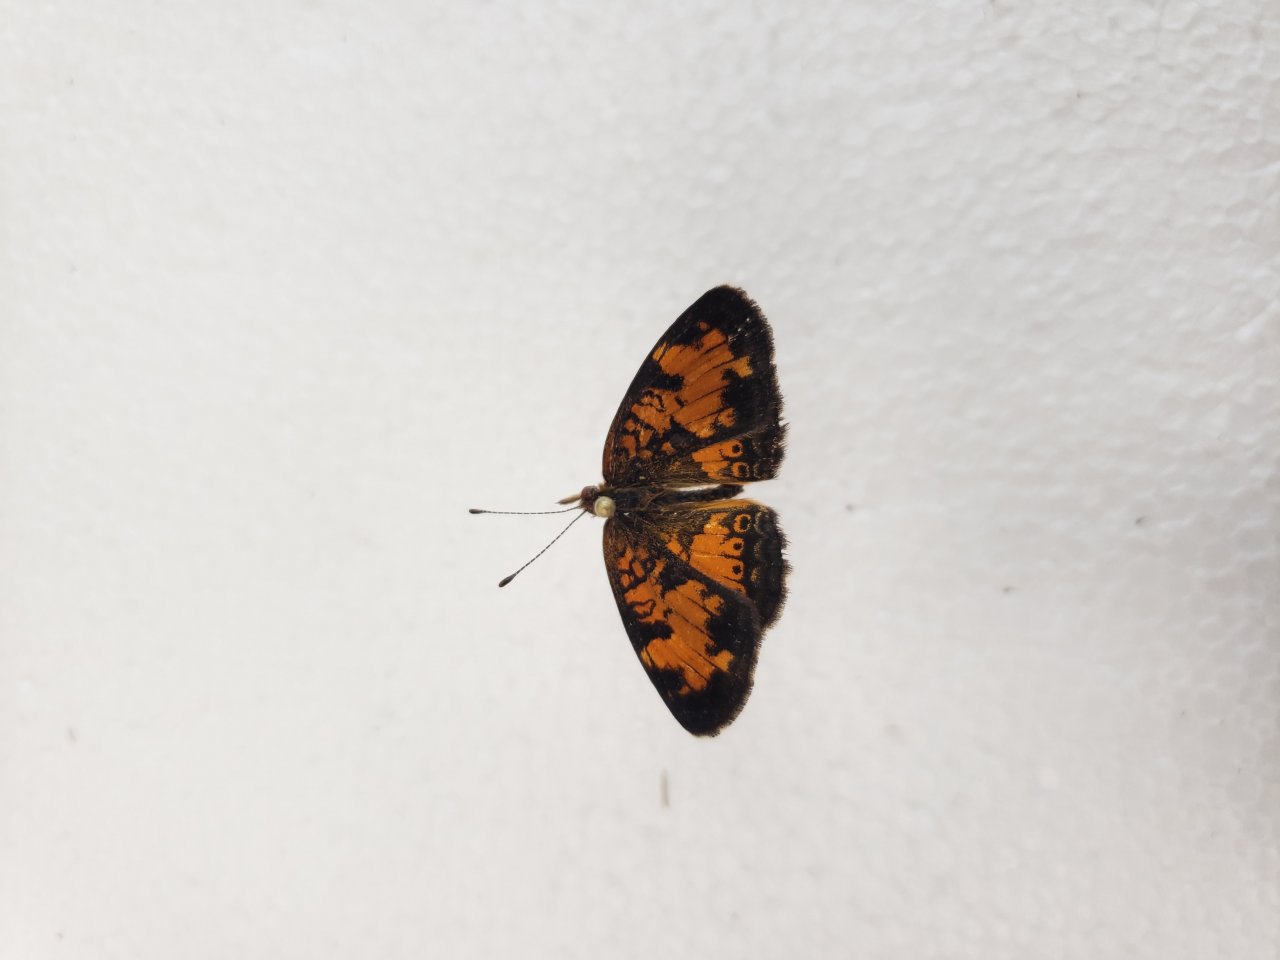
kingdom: Animalia
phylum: Arthropoda
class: Insecta
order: Lepidoptera
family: Nymphalidae
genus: Phyciodes
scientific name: Phyciodes tharos
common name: Northern Crescent
